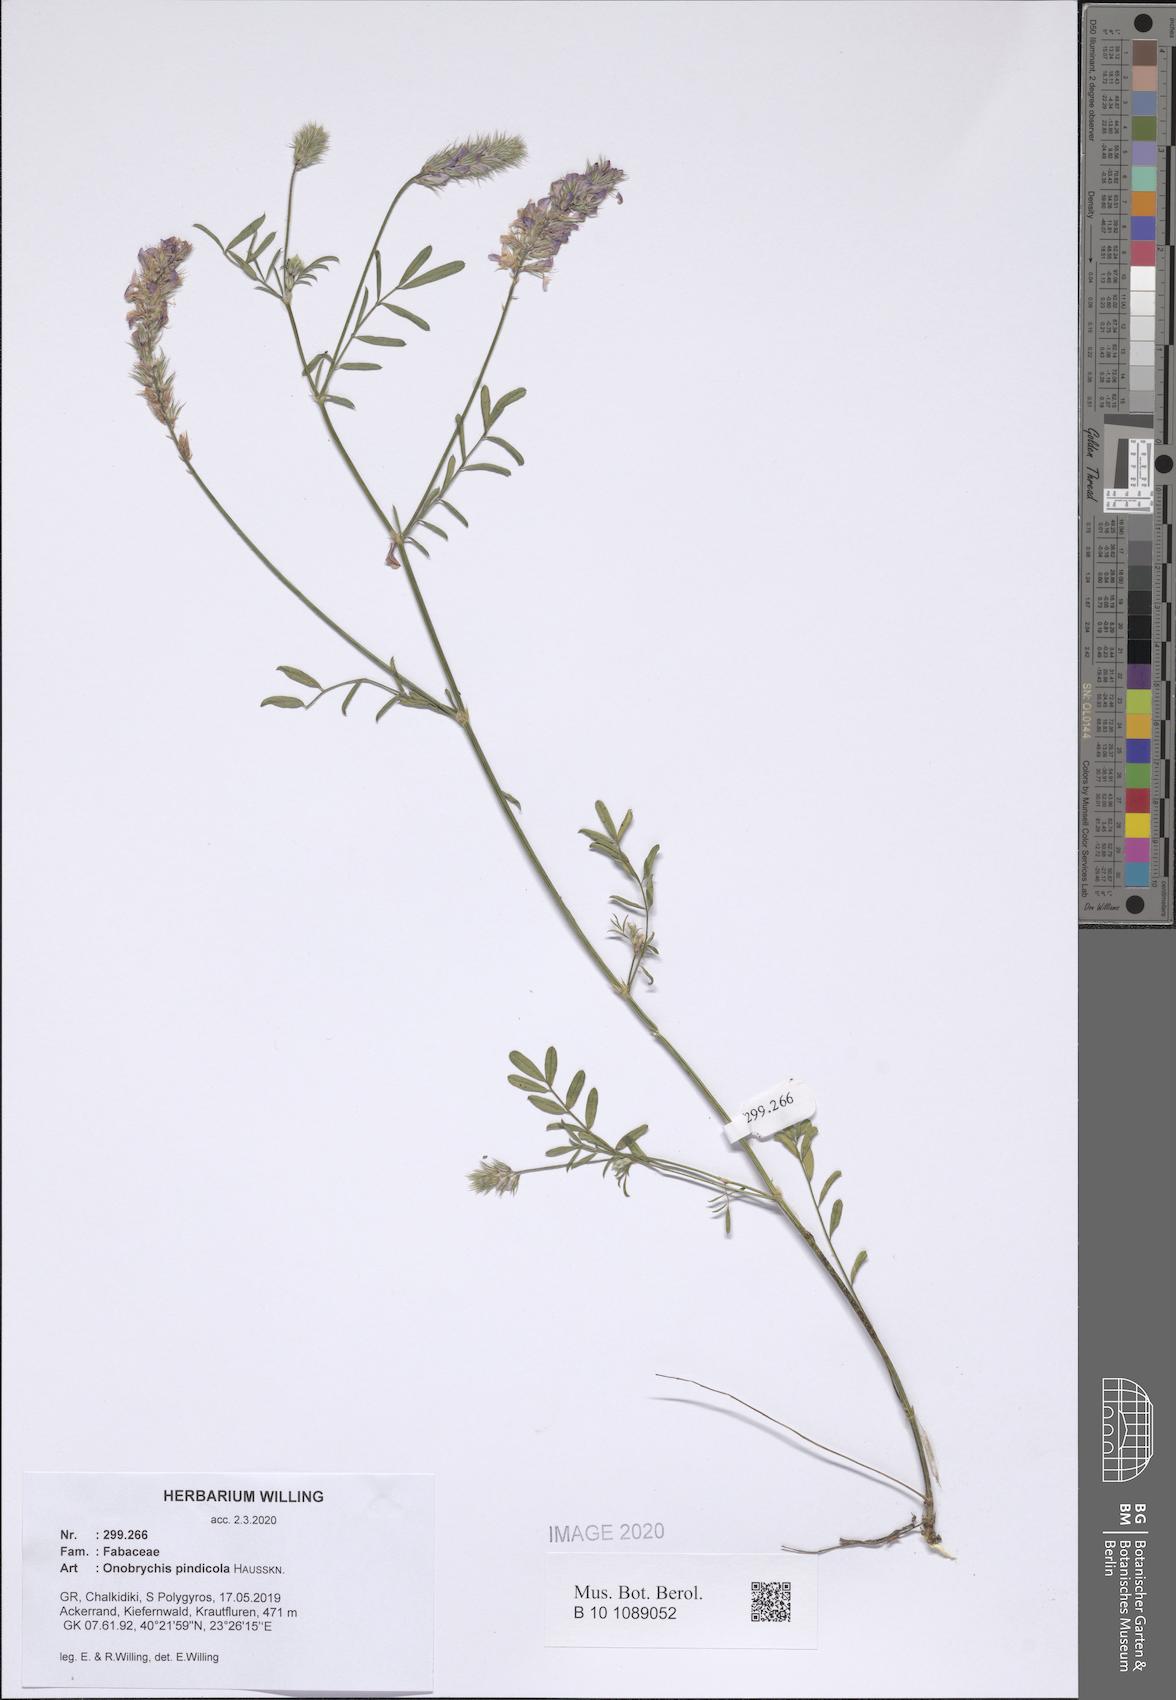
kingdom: Plantae
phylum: Tracheophyta
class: Magnoliopsida
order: Fabales
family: Fabaceae
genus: Onobrychis
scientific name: Onobrychis pindicola
